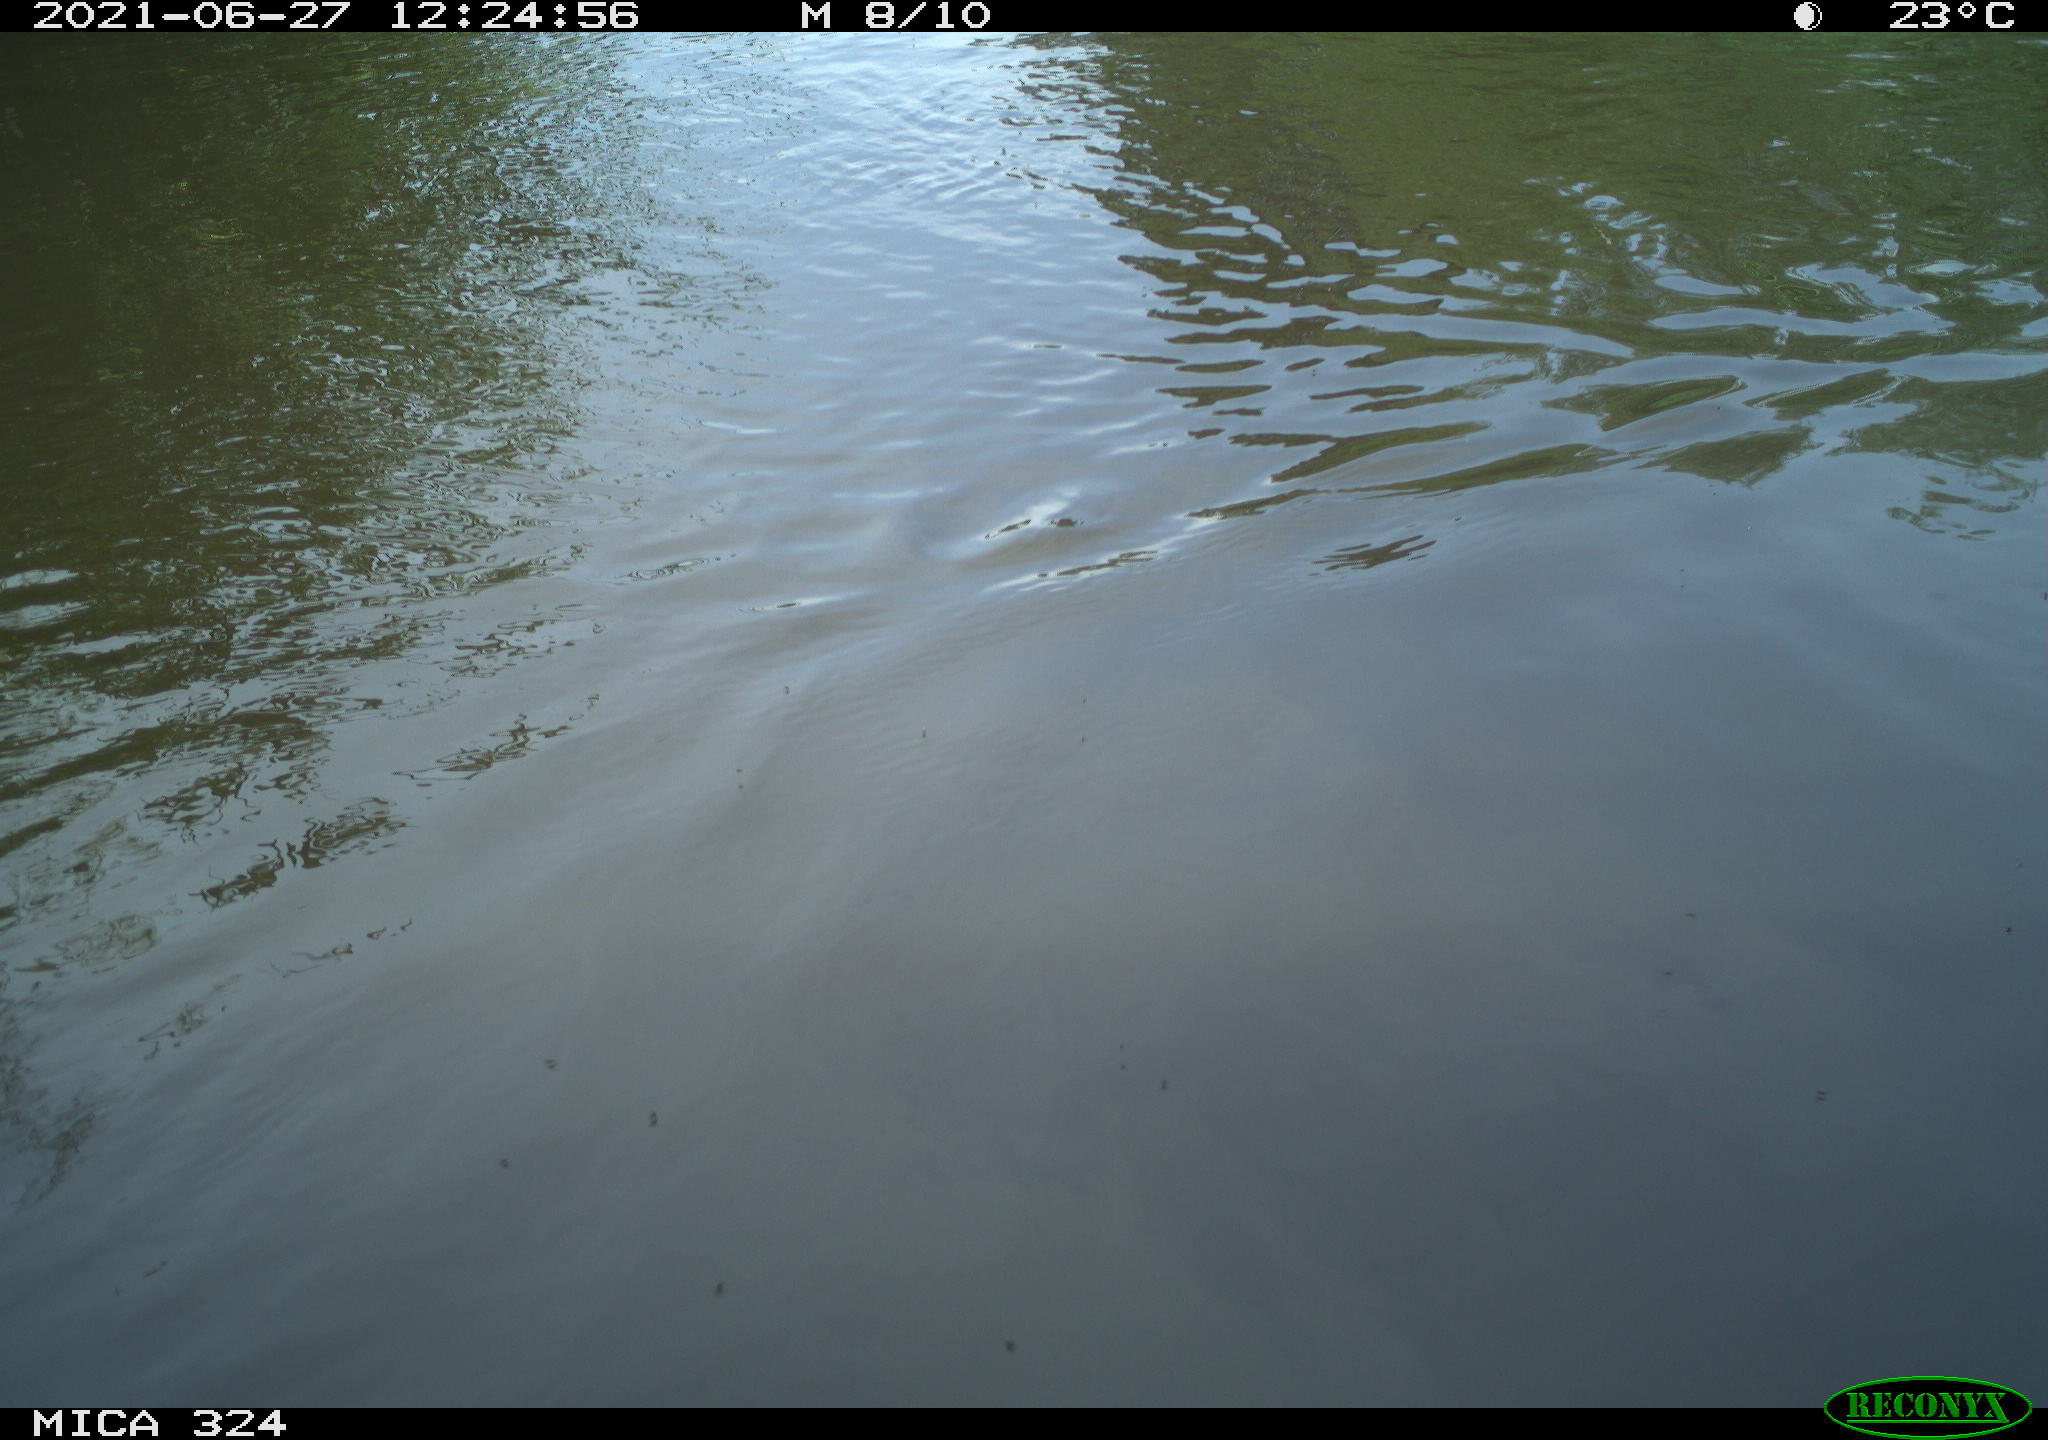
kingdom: Animalia
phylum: Chordata
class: Aves
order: Gruiformes
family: Rallidae
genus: Gallinula
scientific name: Gallinula chloropus
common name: Common moorhen
